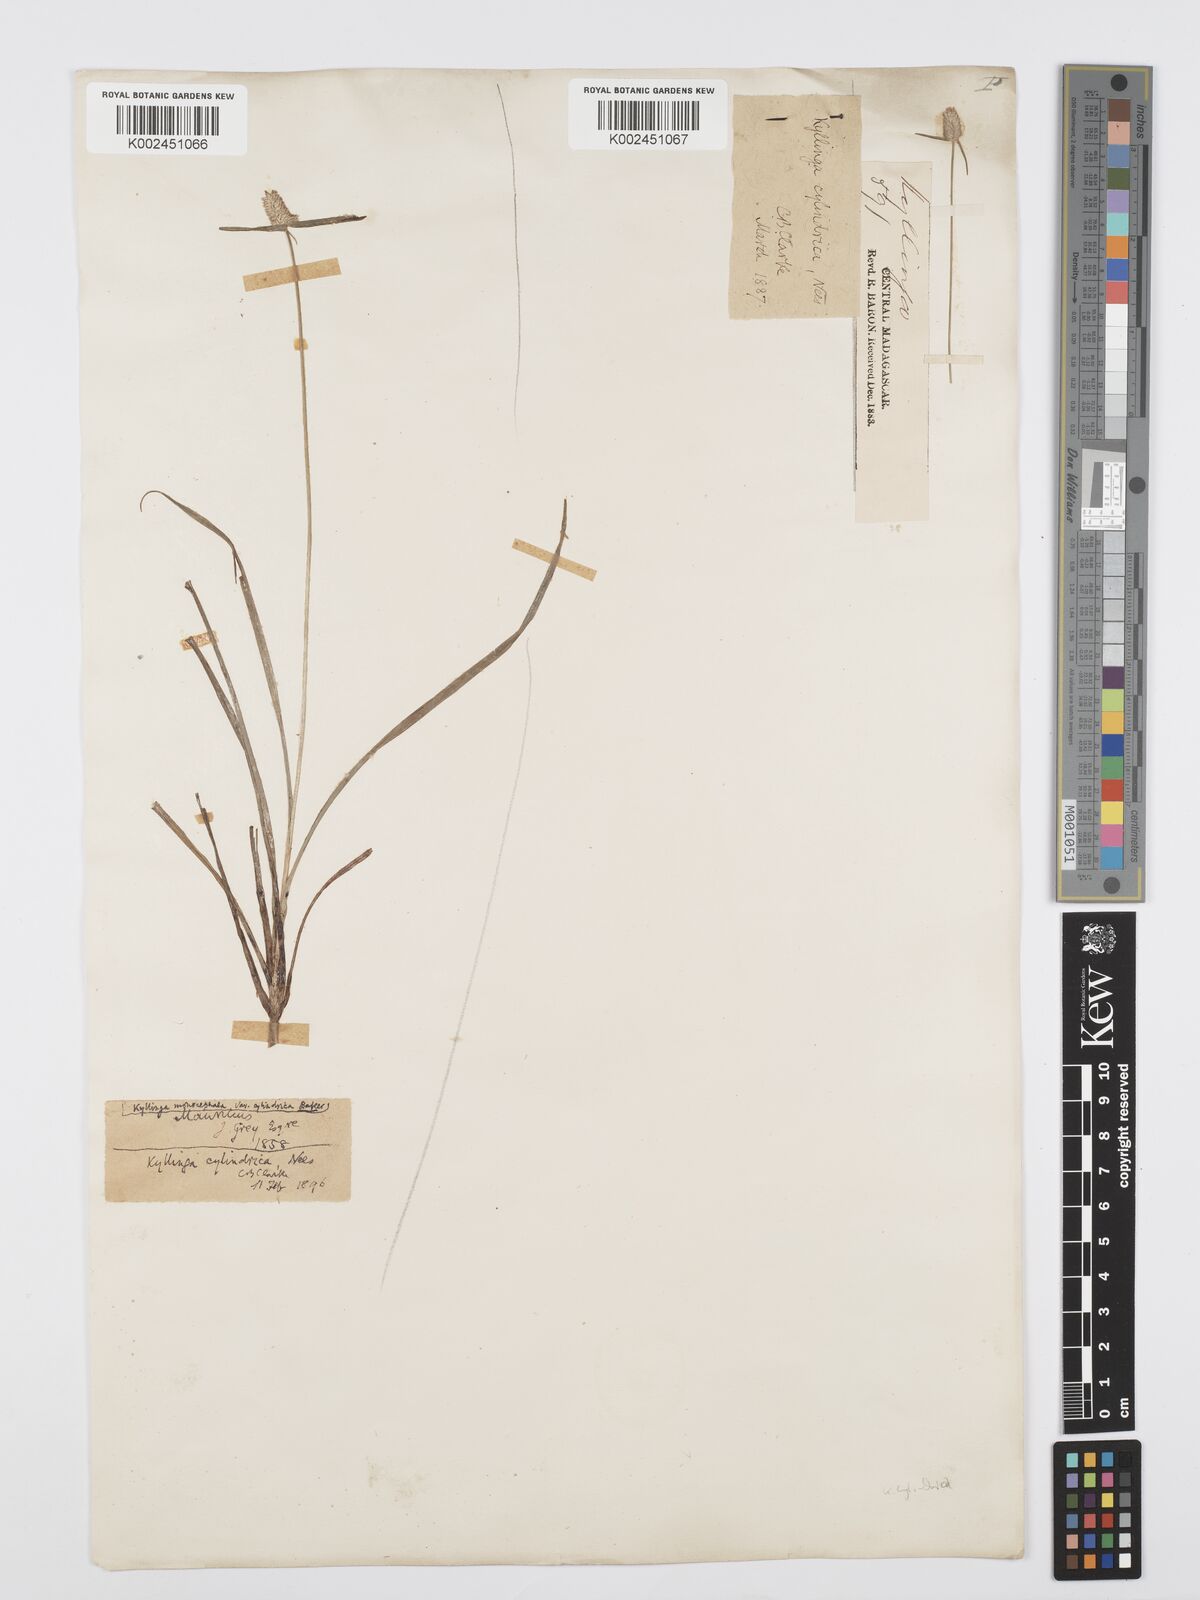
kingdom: Plantae
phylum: Tracheophyta
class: Liliopsida
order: Poales
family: Cyperaceae
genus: Cyperus
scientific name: Cyperus pumilus
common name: Low flatsedge
